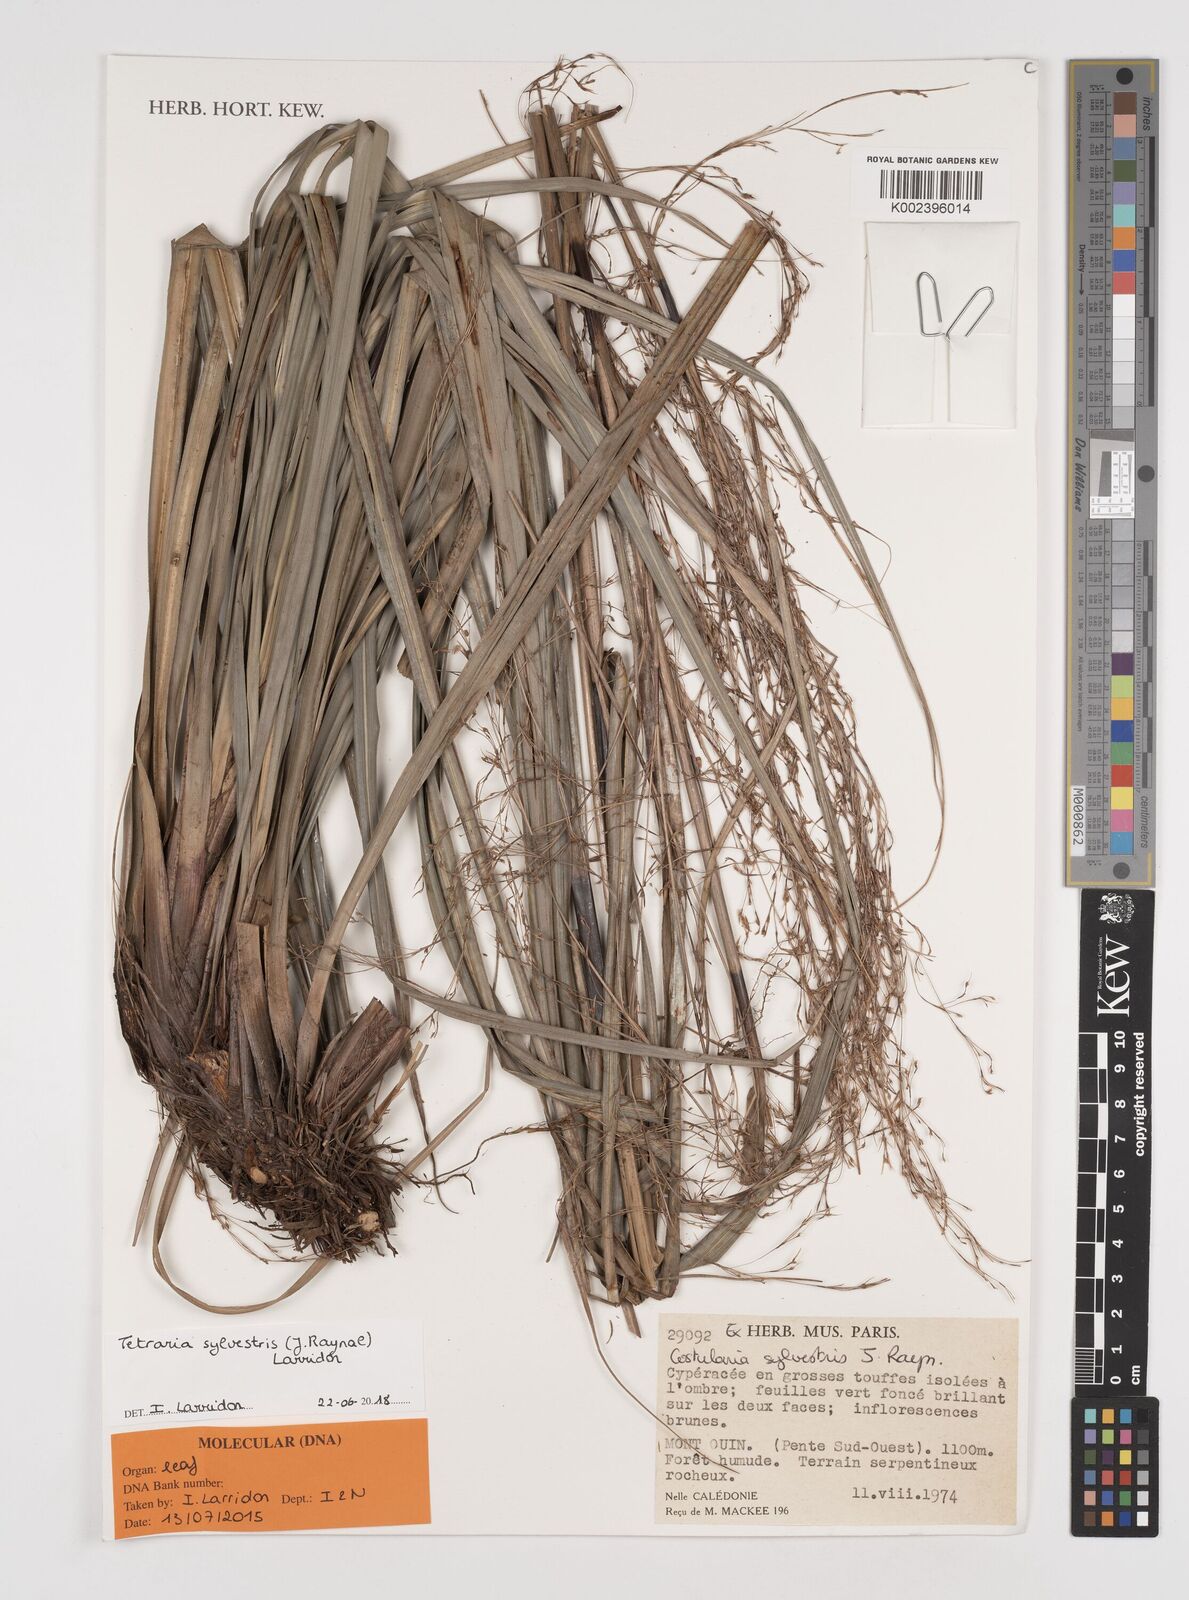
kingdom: Plantae
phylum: Tracheophyta
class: Liliopsida
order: Poales
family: Cyperaceae
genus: Tetraria
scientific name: Tetraria sylvestris
